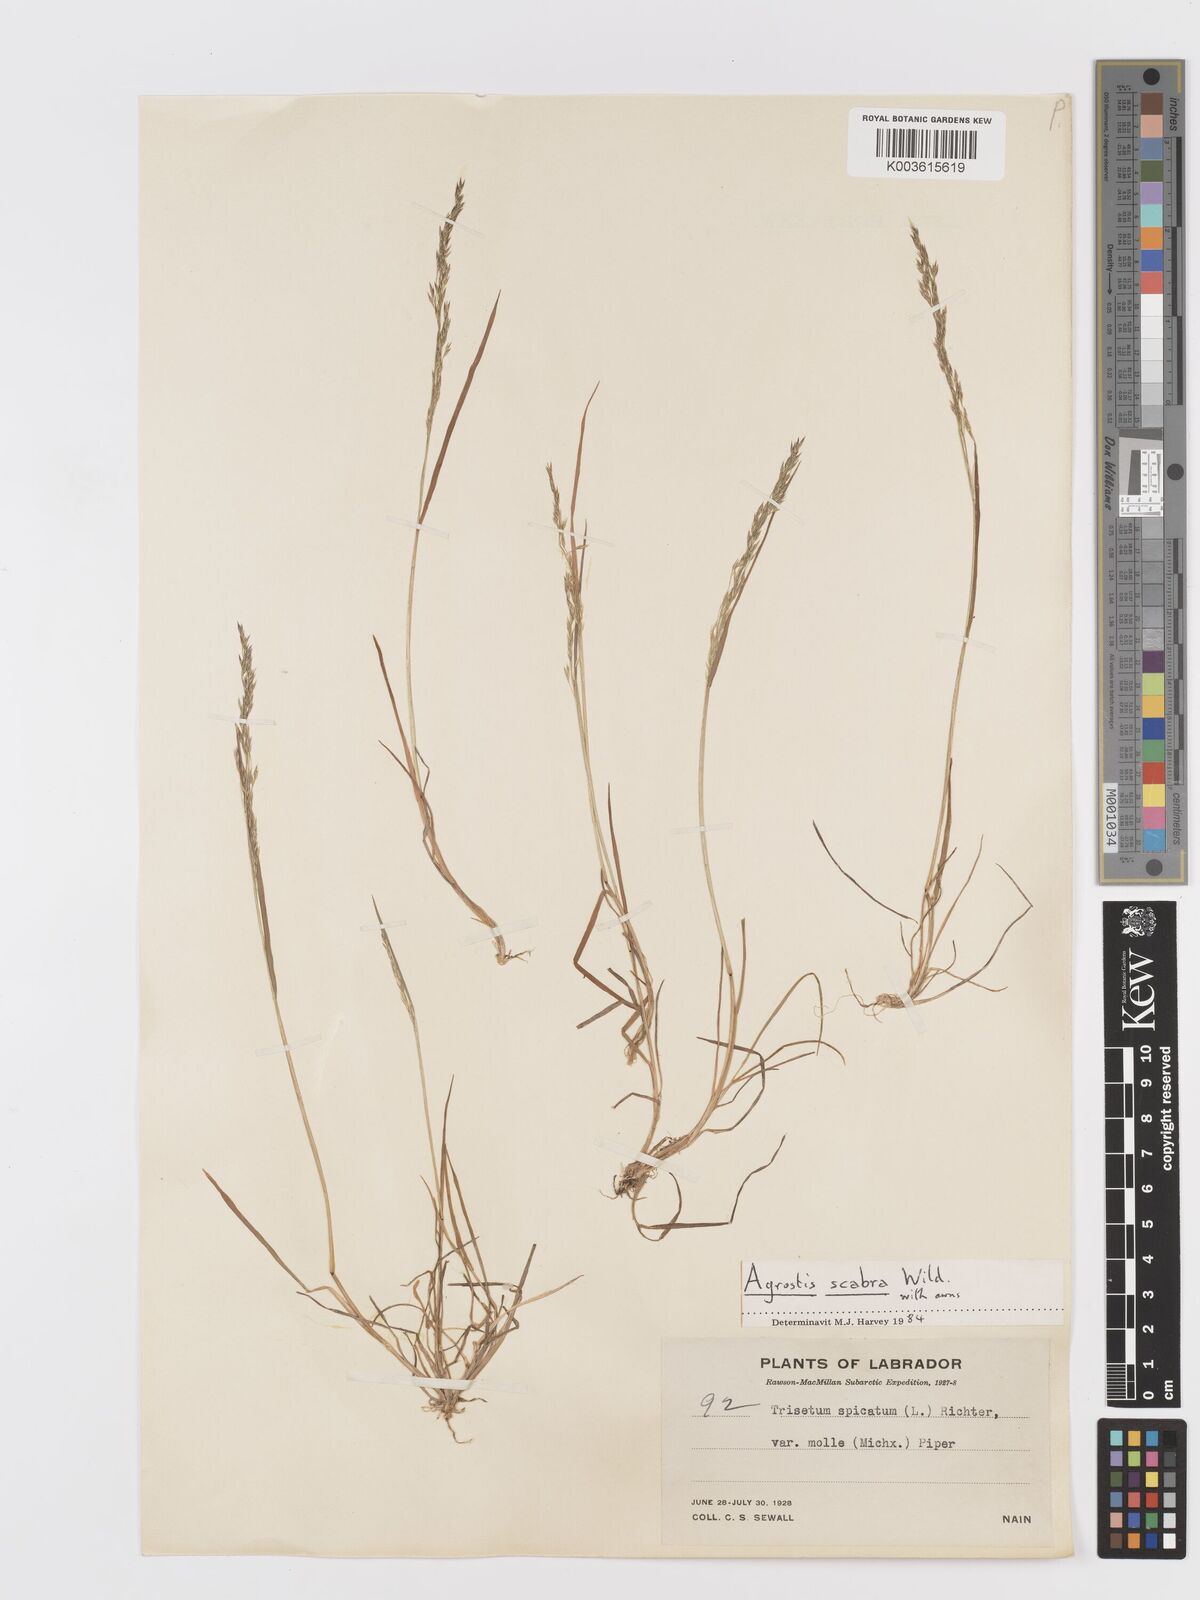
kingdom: Plantae
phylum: Tracheophyta
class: Liliopsida
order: Poales
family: Poaceae
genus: Koeleria
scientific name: Koeleria spicata
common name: Mountain trisetum
